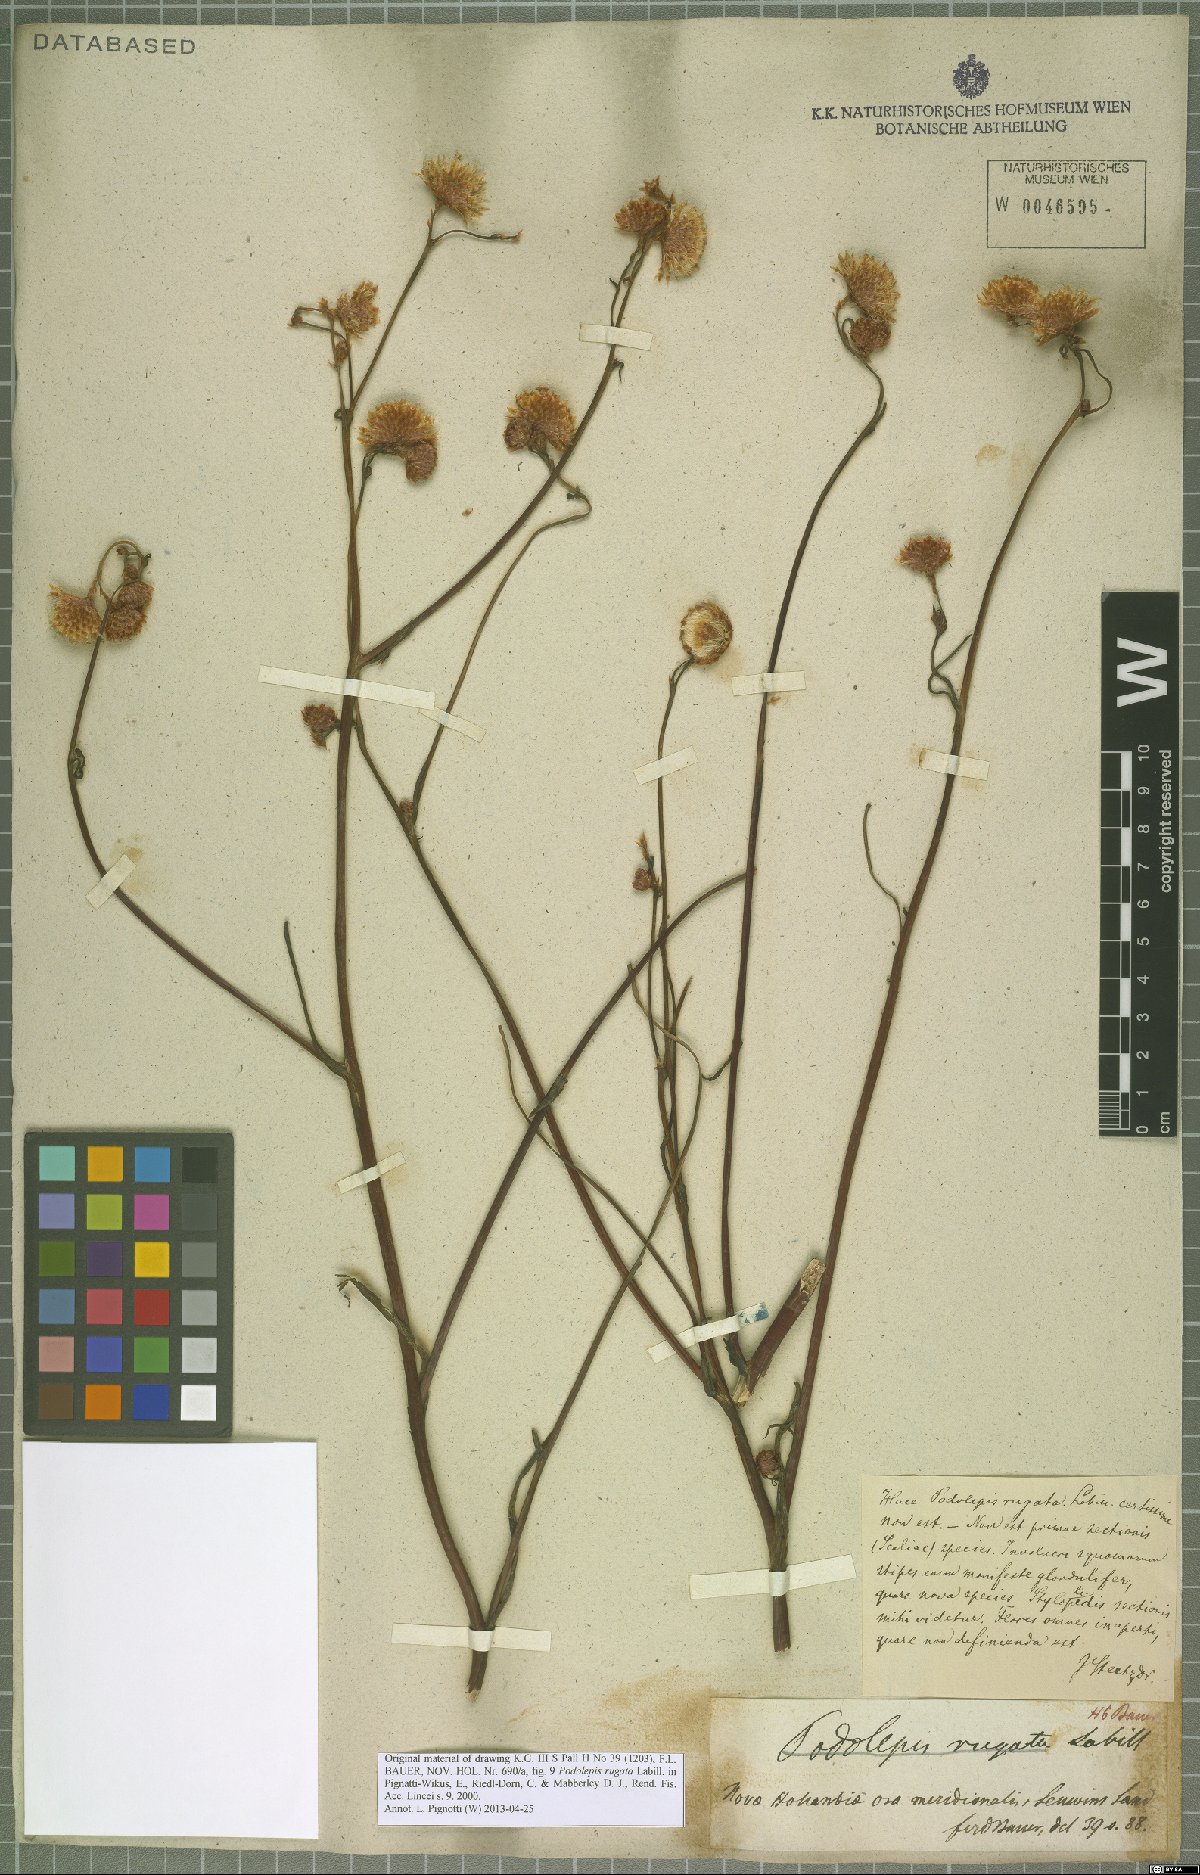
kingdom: Plantae
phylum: Tracheophyta
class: Magnoliopsida
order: Asterales
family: Asteraceae
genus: Podolepis
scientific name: Podolepis
